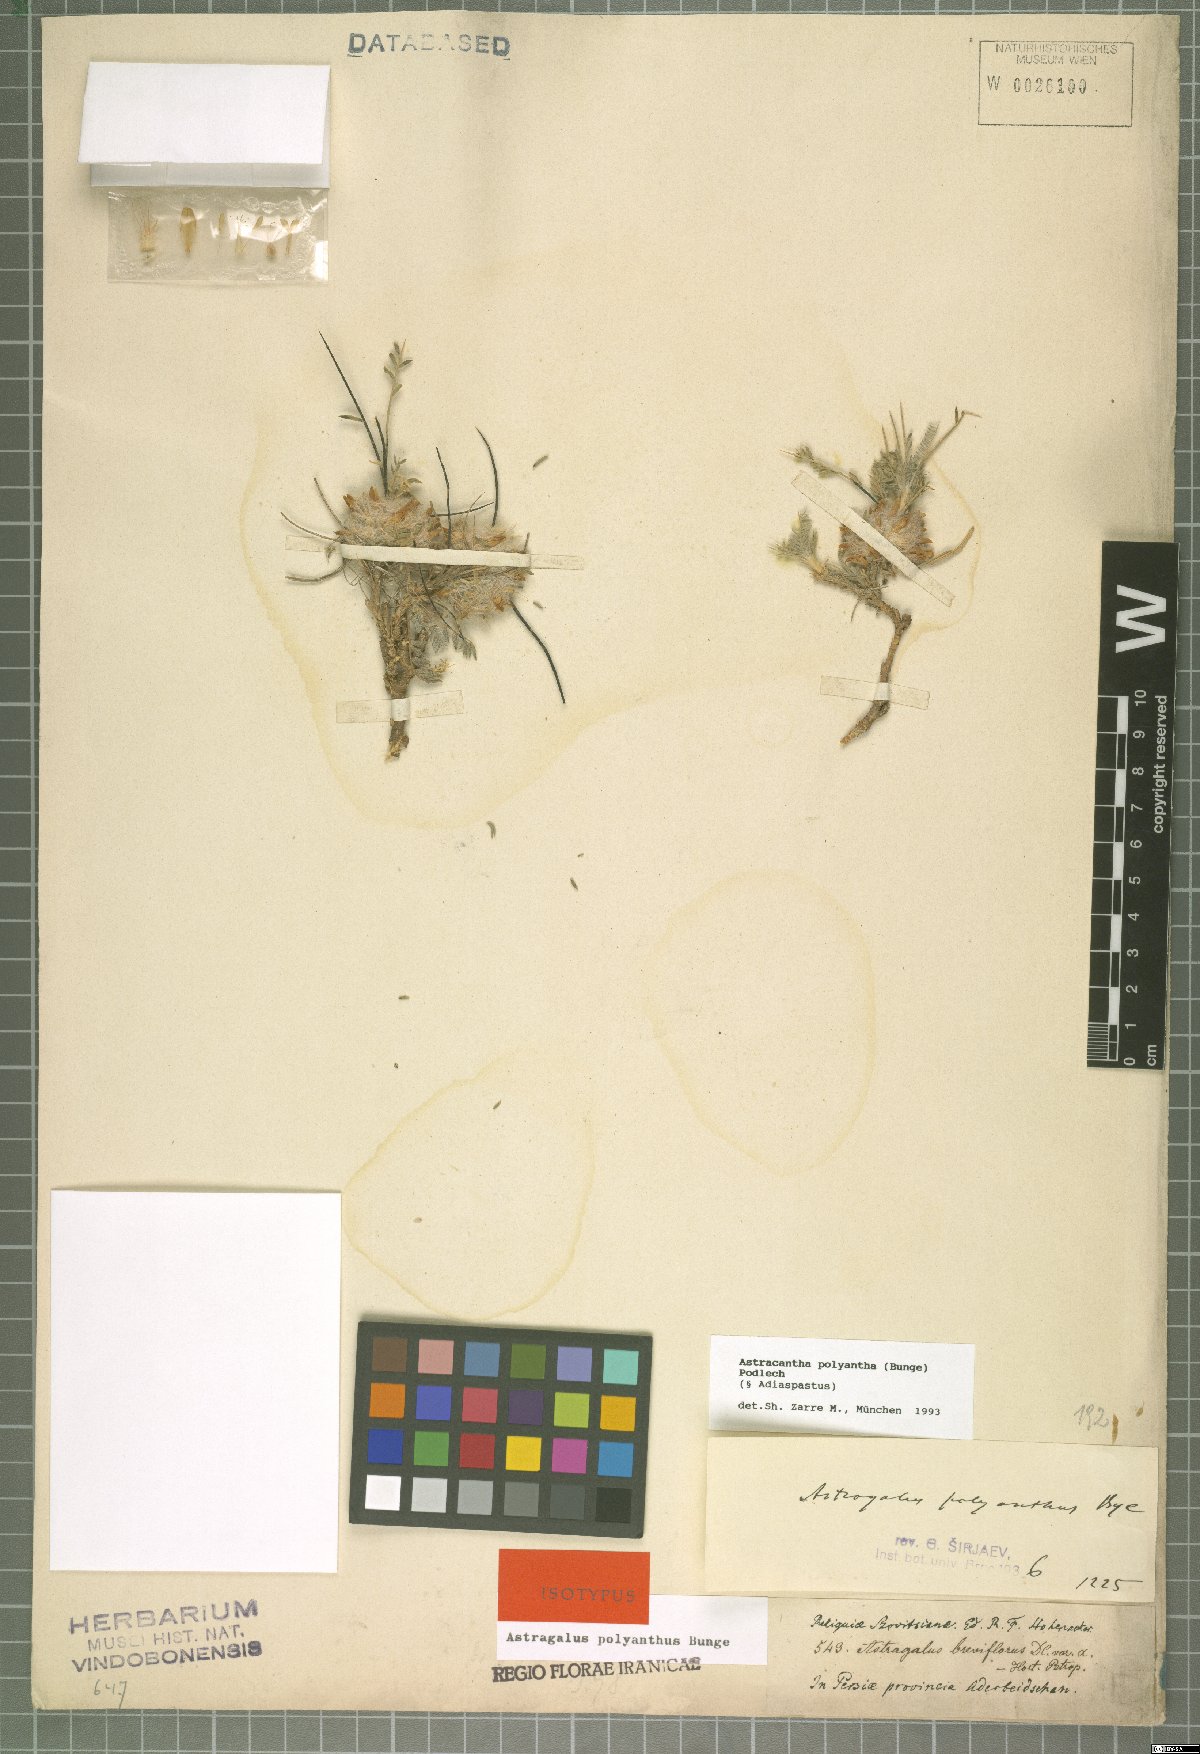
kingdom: Plantae
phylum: Tracheophyta
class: Magnoliopsida
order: Fabales
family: Fabaceae
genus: Astragalus
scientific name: Astragalus polyanthus
